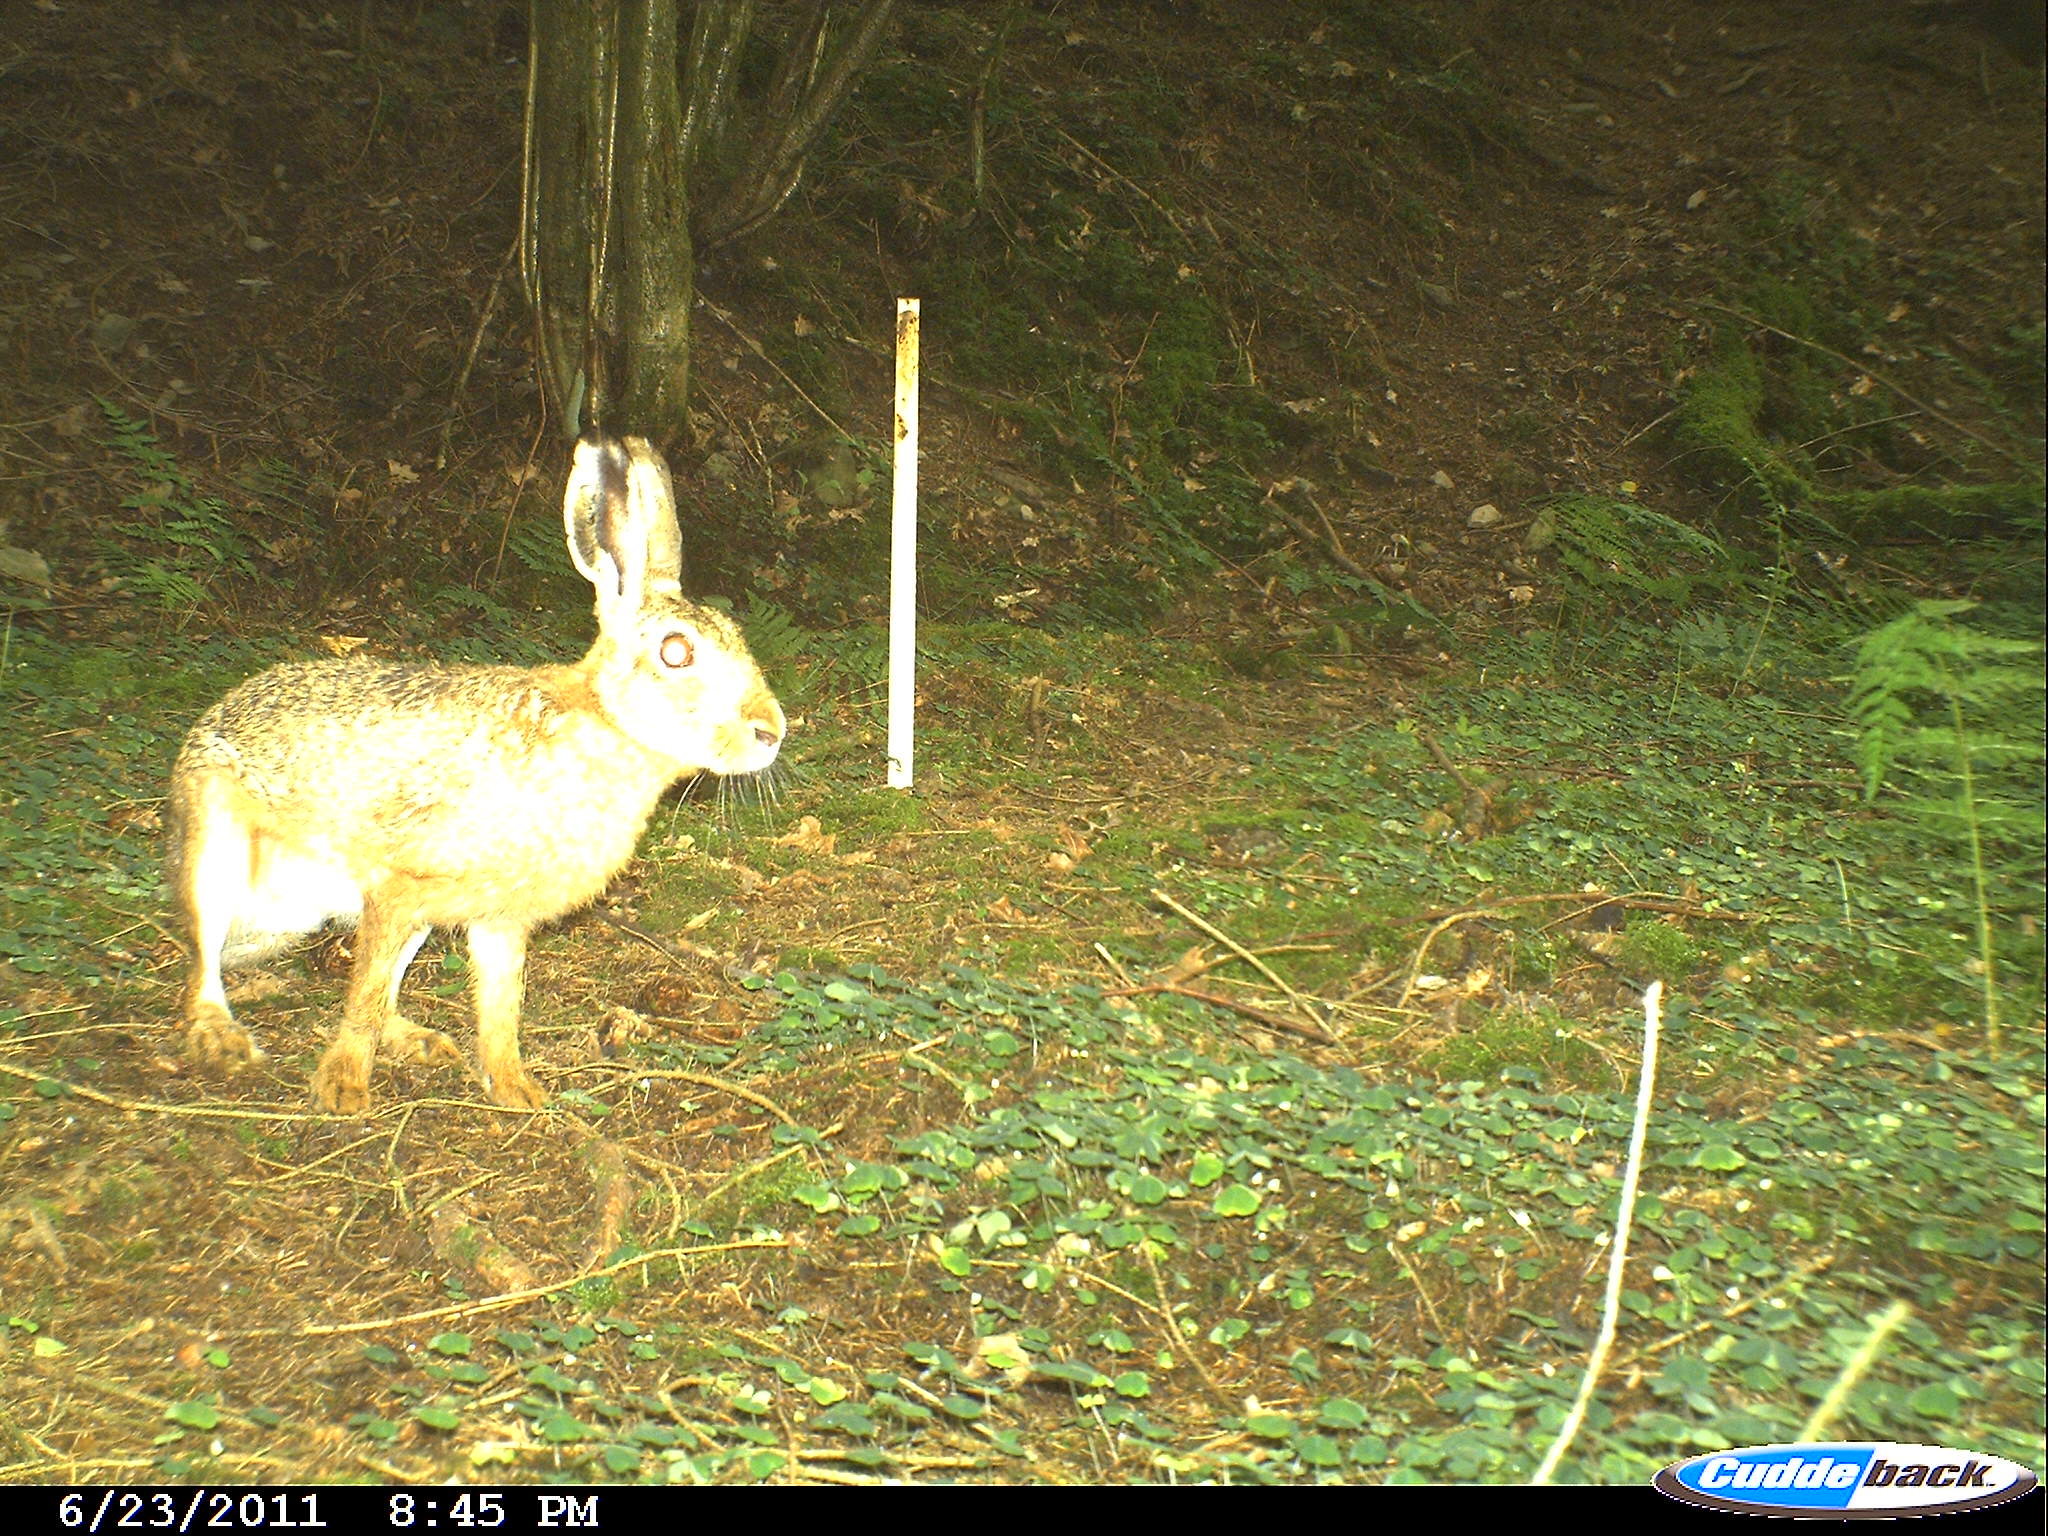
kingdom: Animalia
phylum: Chordata
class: Mammalia
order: Lagomorpha
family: Leporidae
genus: Lepus
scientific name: Lepus europaeus
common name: European hare
